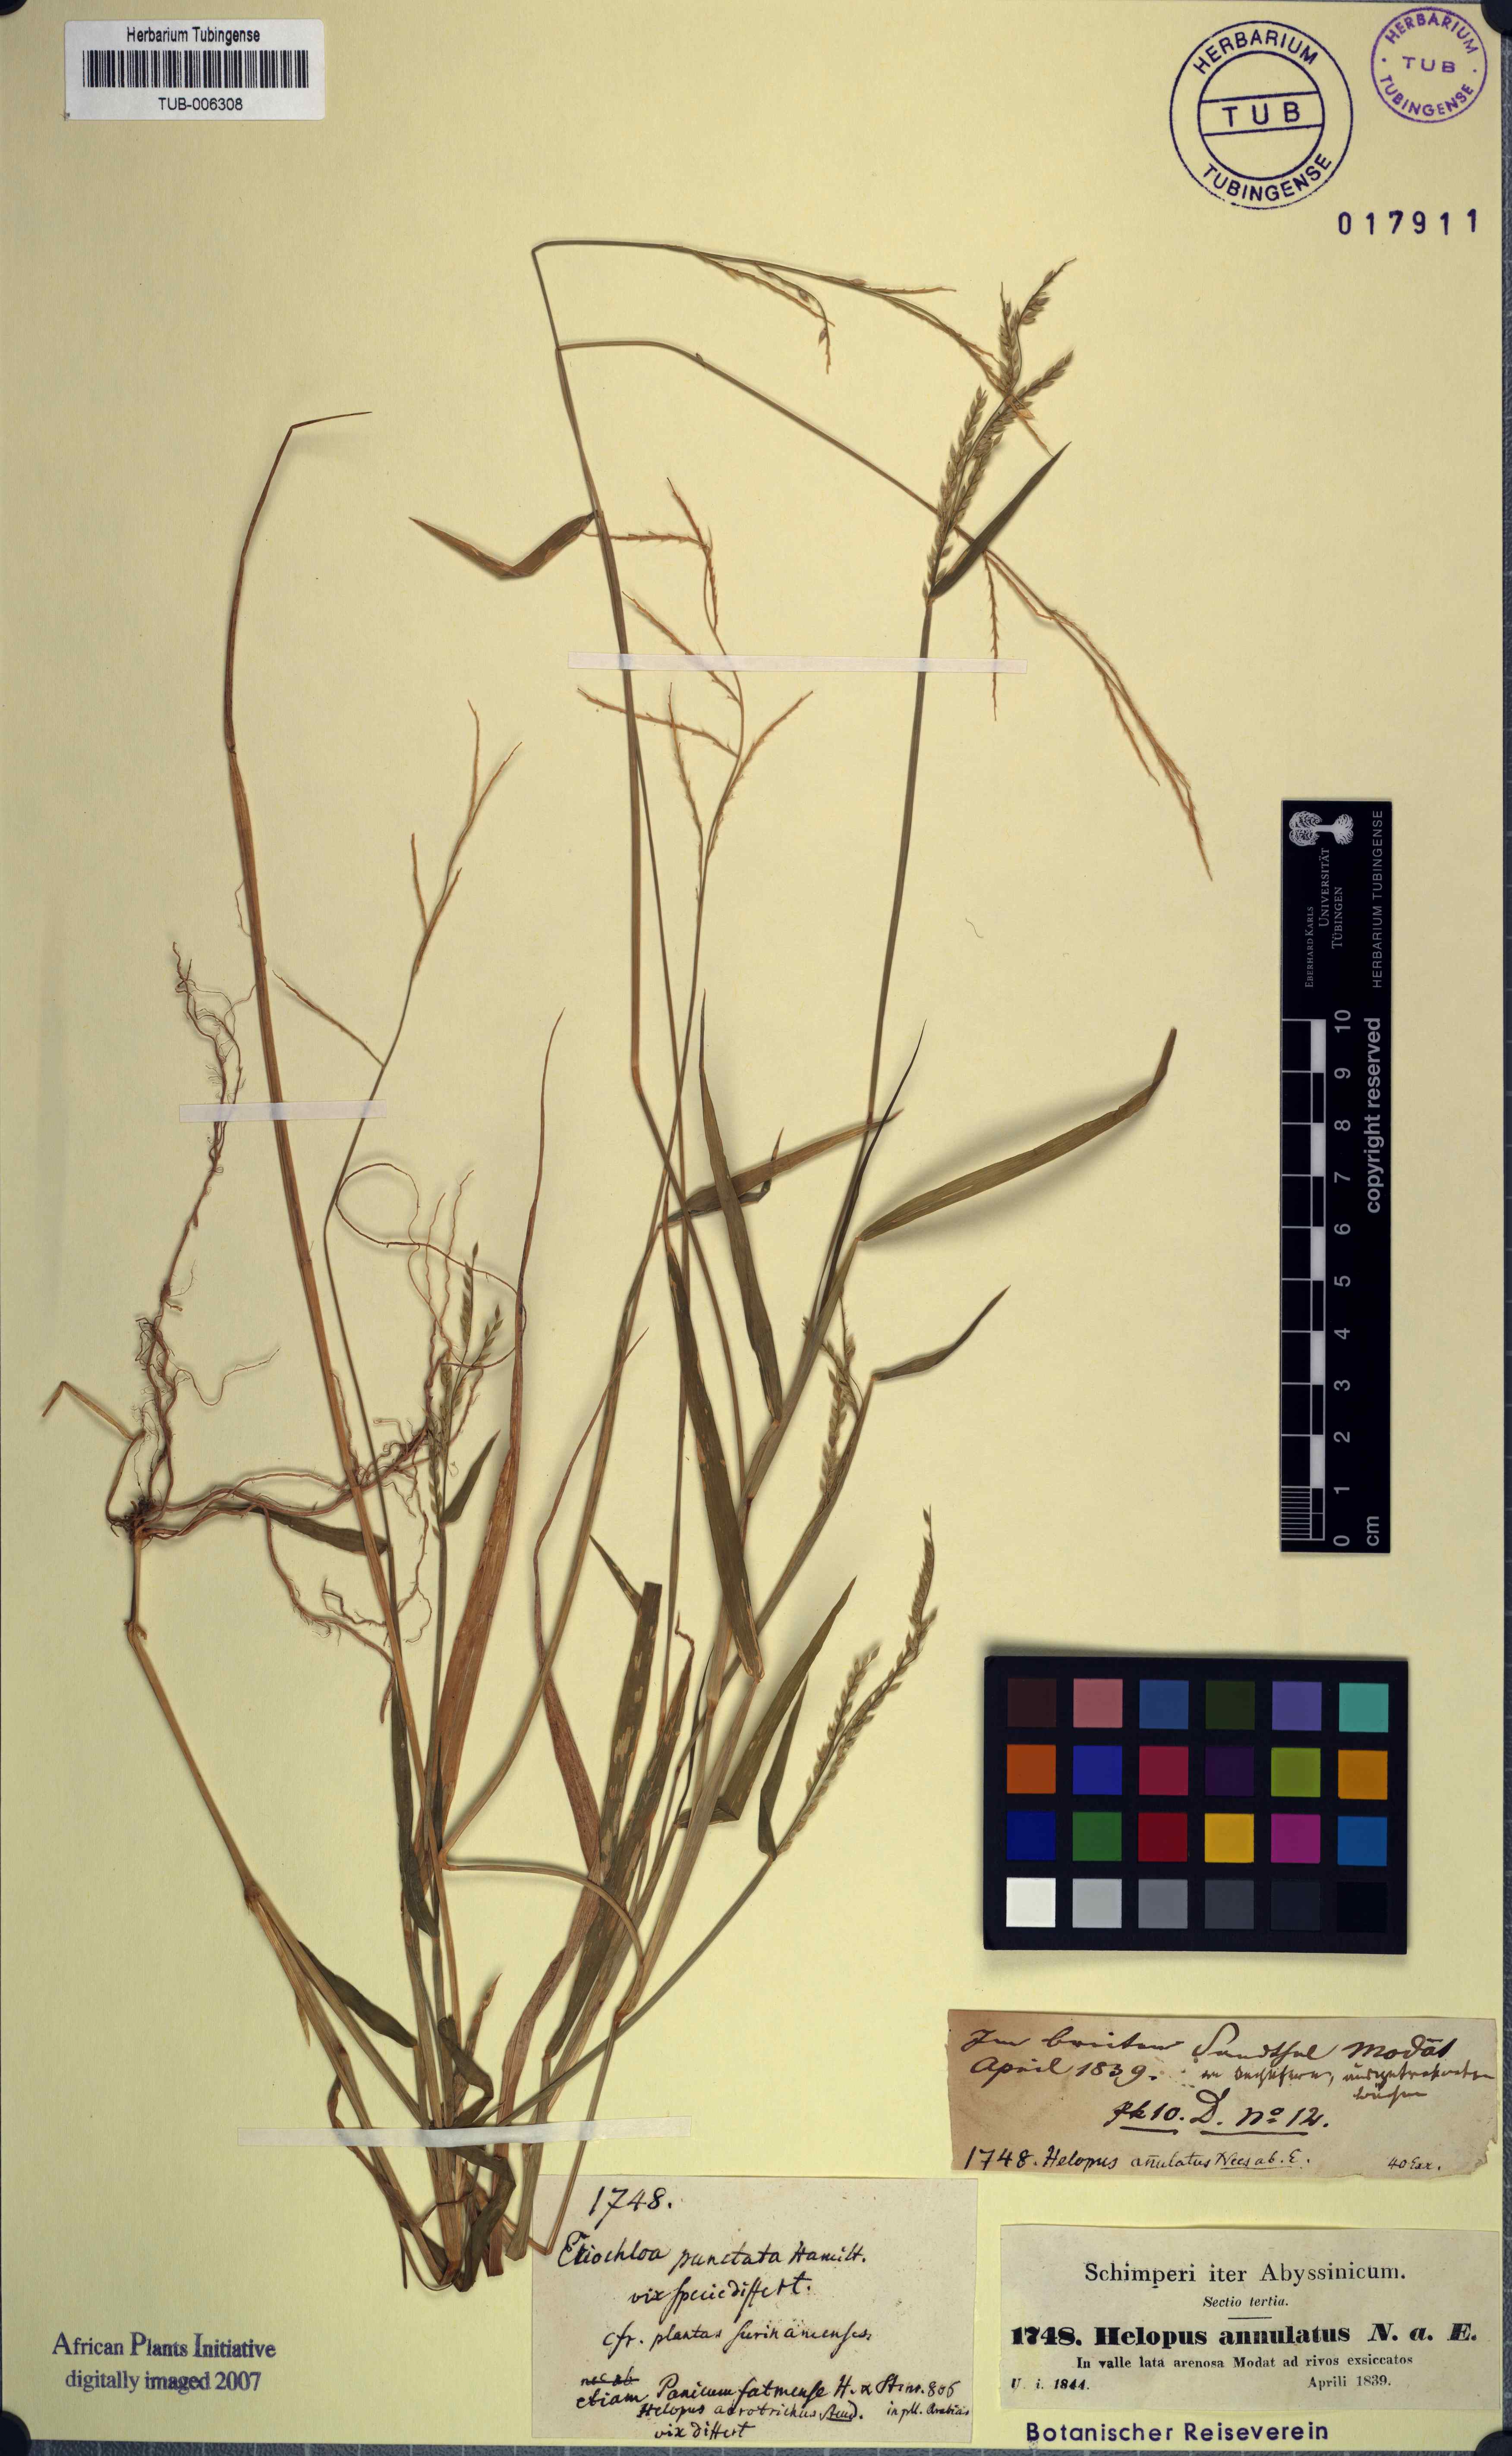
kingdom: Plantae
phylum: Tracheophyta
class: Liliopsida
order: Poales
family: Poaceae
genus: Eriochloa
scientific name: Eriochloa procera
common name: Spring grass
